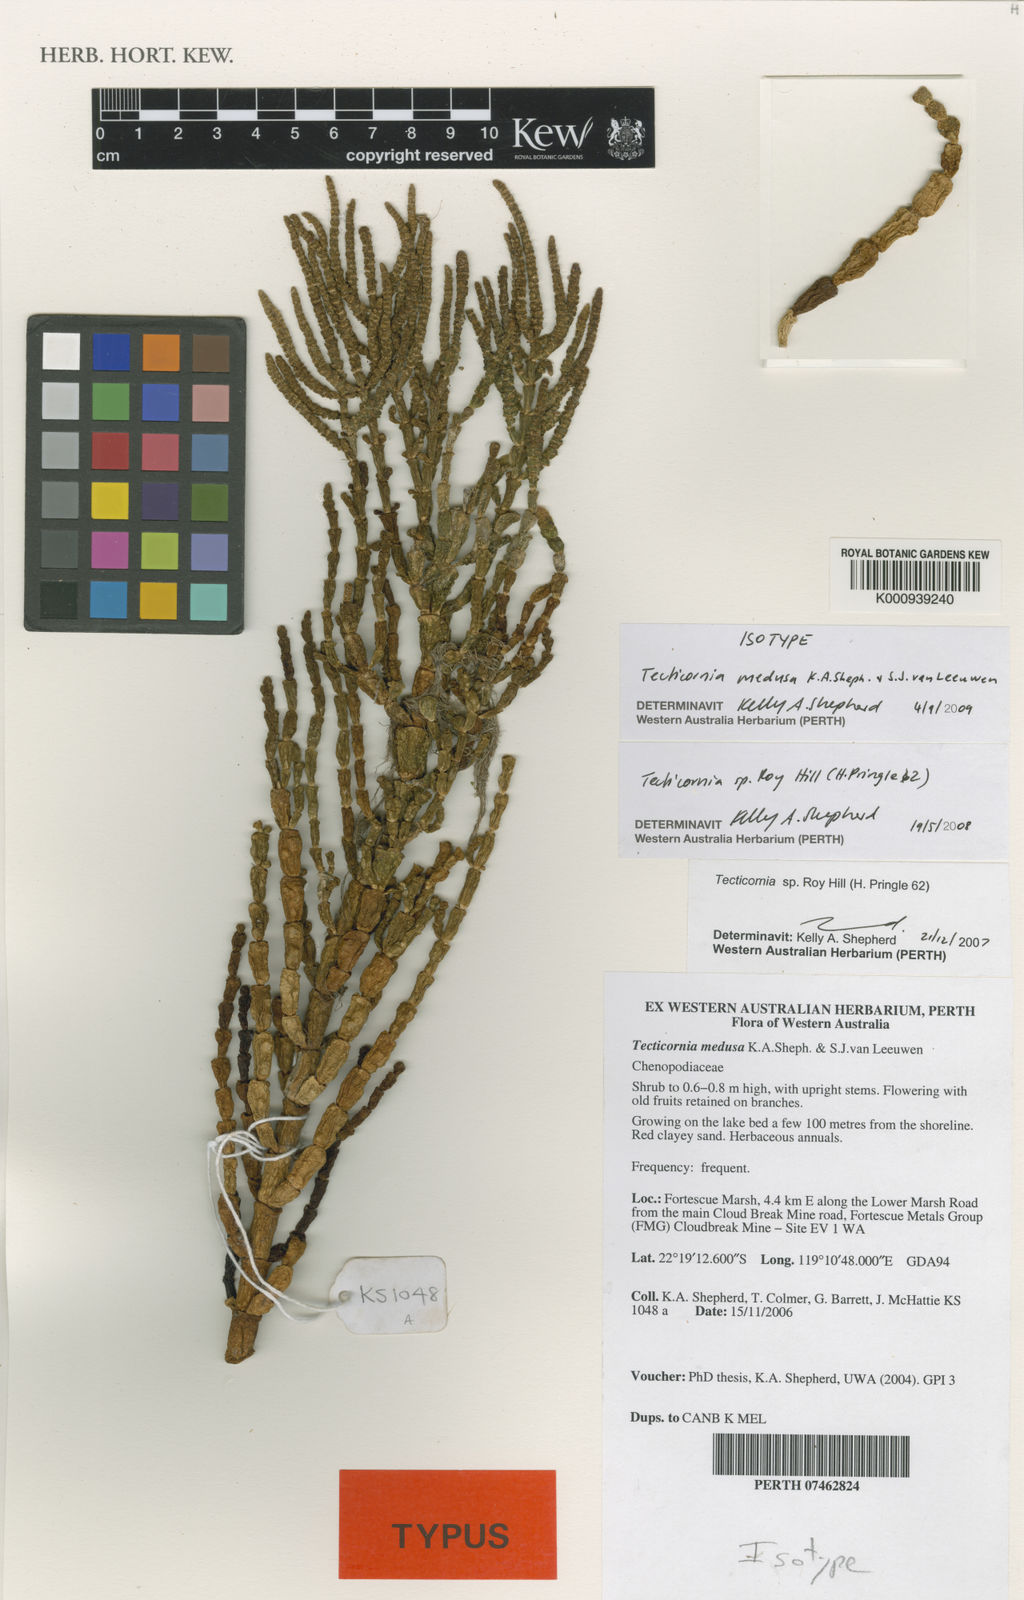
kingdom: Plantae
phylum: Tracheophyta
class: Magnoliopsida
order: Caryophyllales
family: Amaranthaceae
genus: Tecticornia
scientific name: Tecticornia medusa
